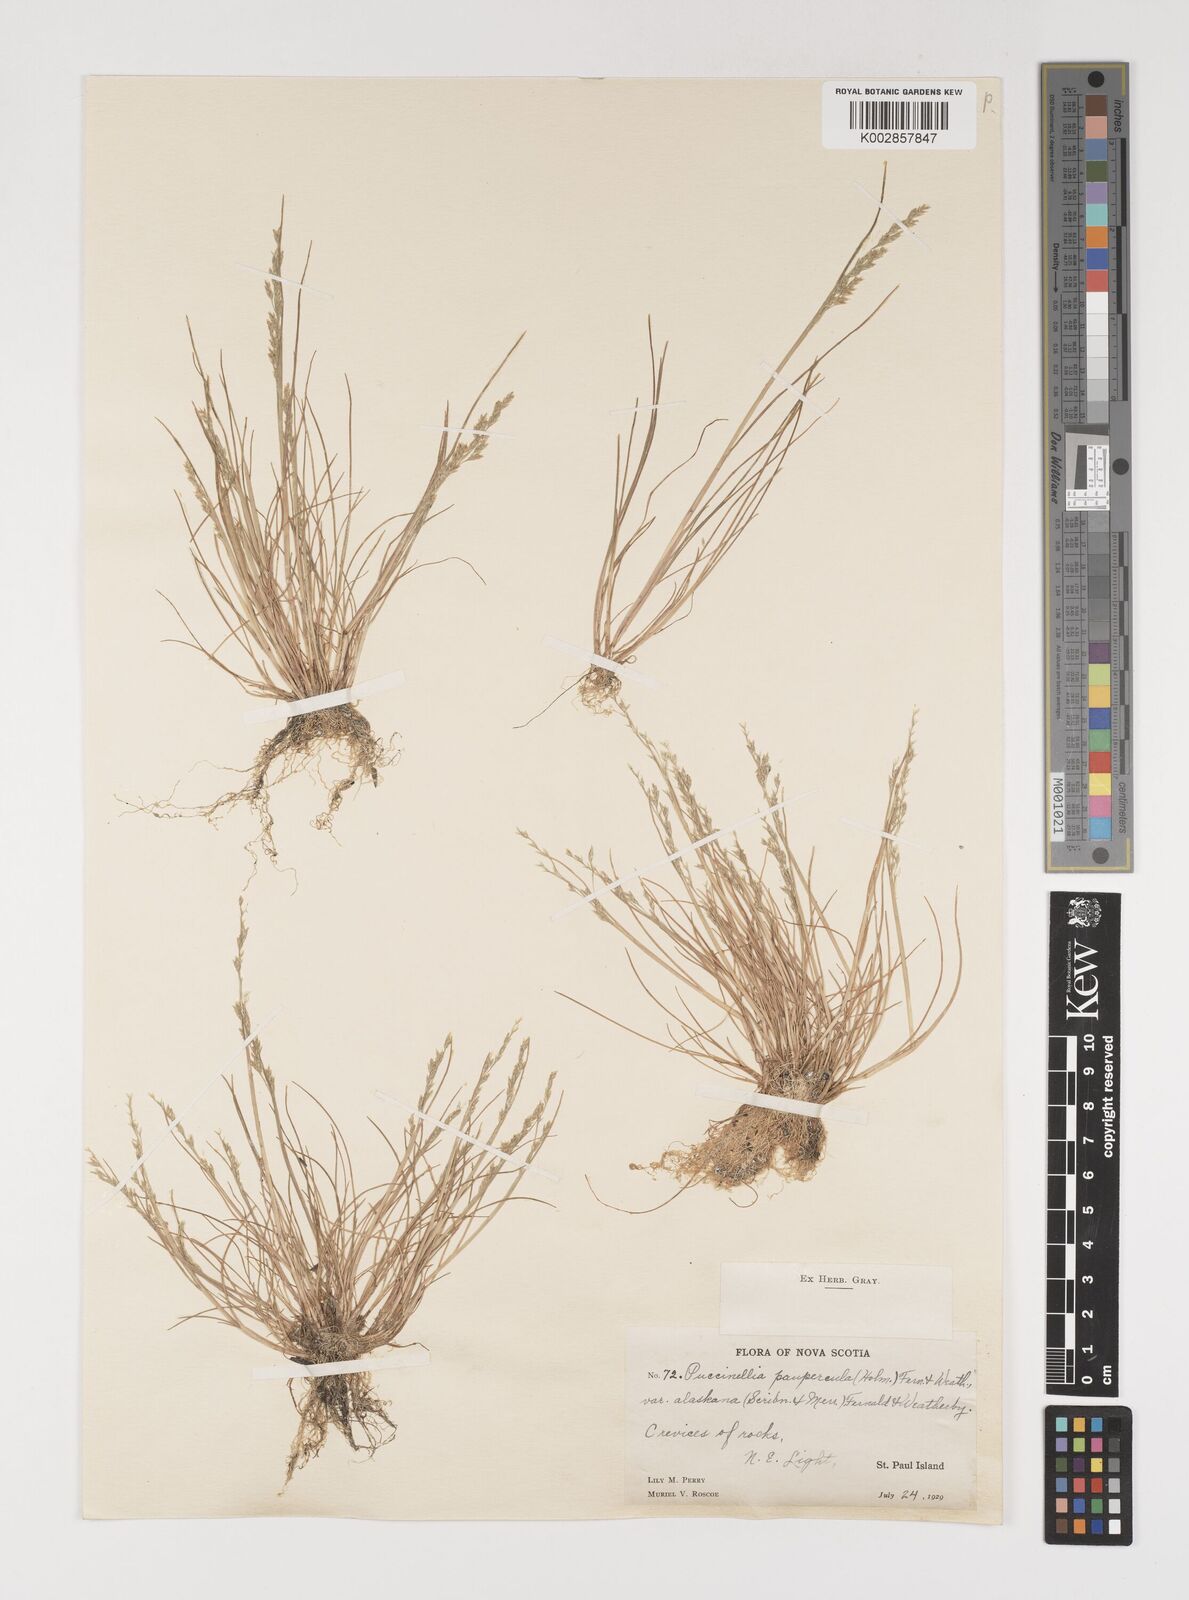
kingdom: Plantae
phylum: Tracheophyta
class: Liliopsida
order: Poales
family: Poaceae
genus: Puccinellia
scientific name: Puccinellia tenella
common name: Tundra alkaligrass
